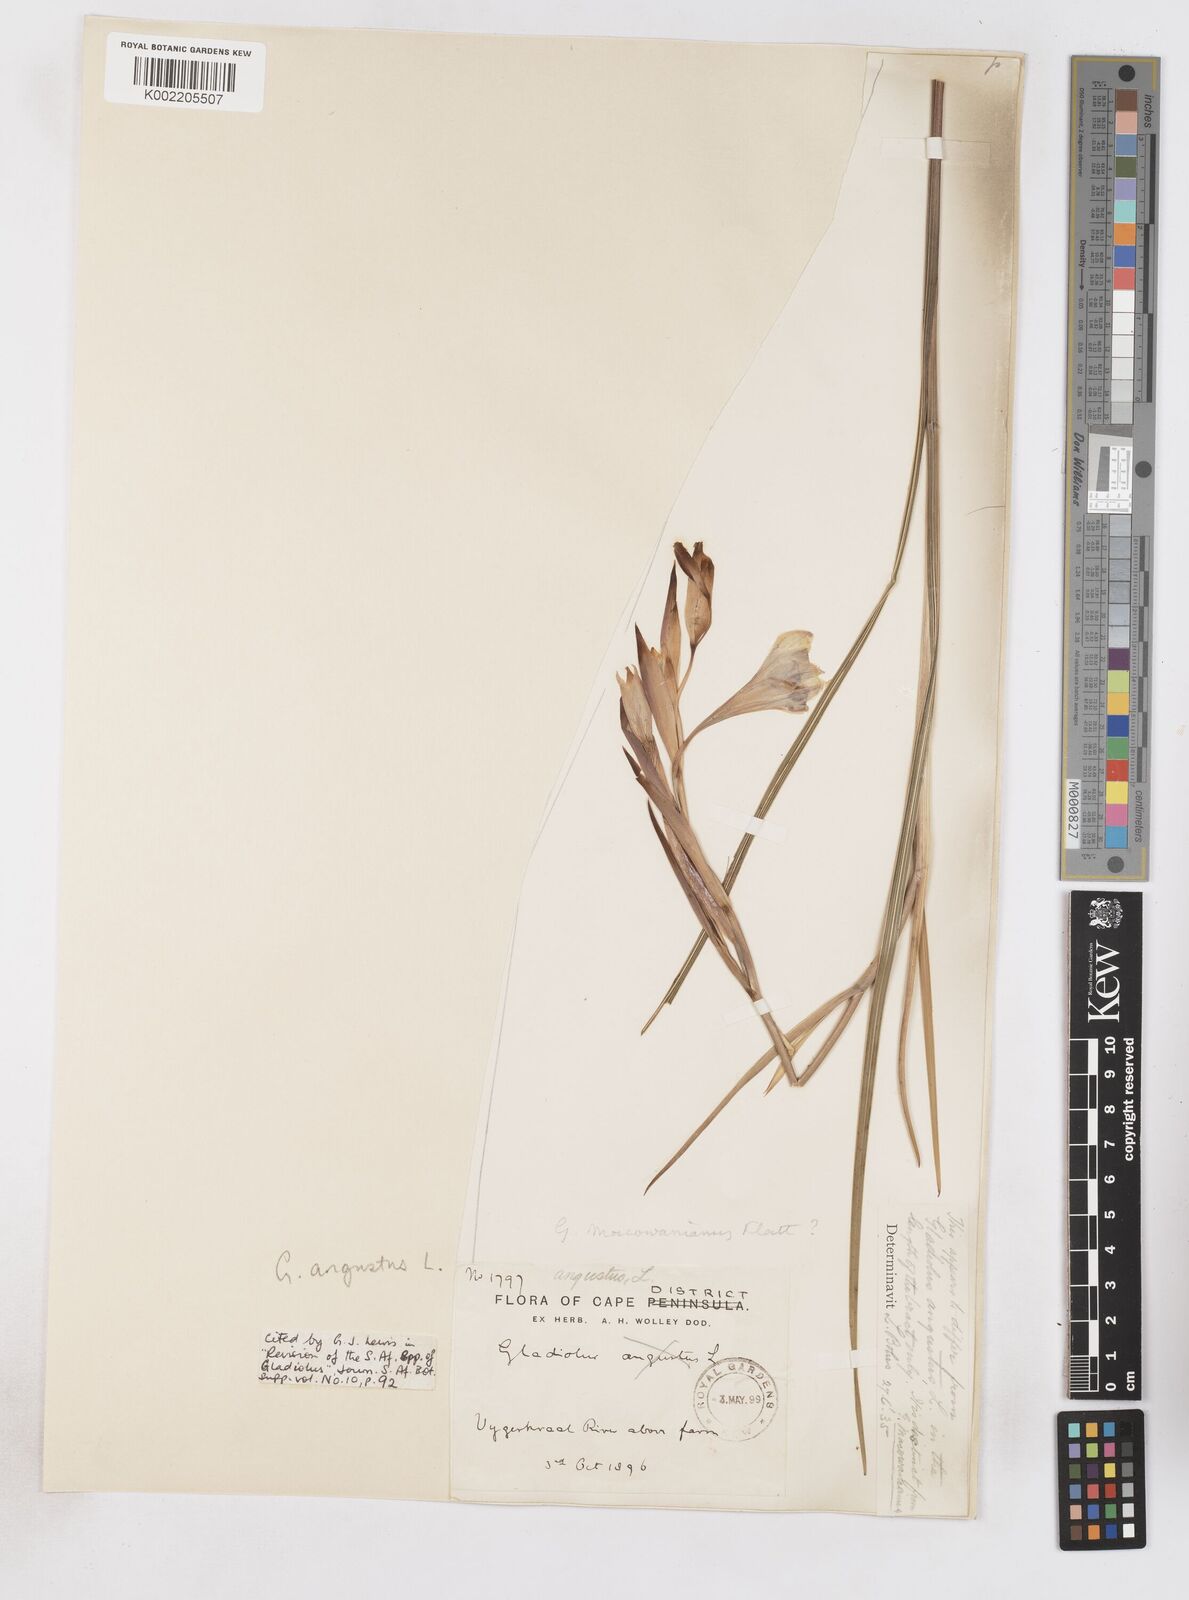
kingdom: Plantae
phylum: Tracheophyta
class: Liliopsida
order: Asparagales
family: Iridaceae
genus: Gladiolus
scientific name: Gladiolus angustus
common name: Painted-lady
